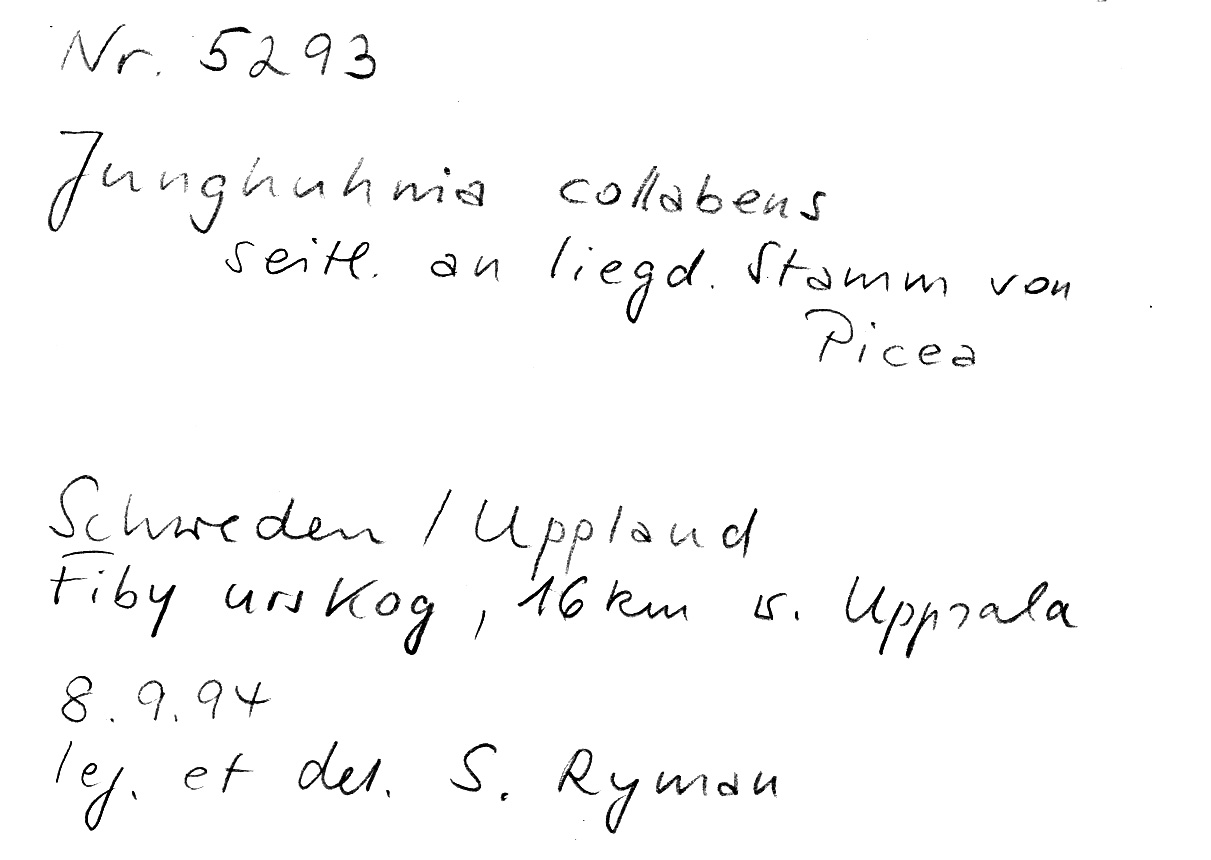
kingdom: Plantae
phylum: Tracheophyta
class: Pinopsida
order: Pinales
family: Pinaceae
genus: Picea
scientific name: Picea
